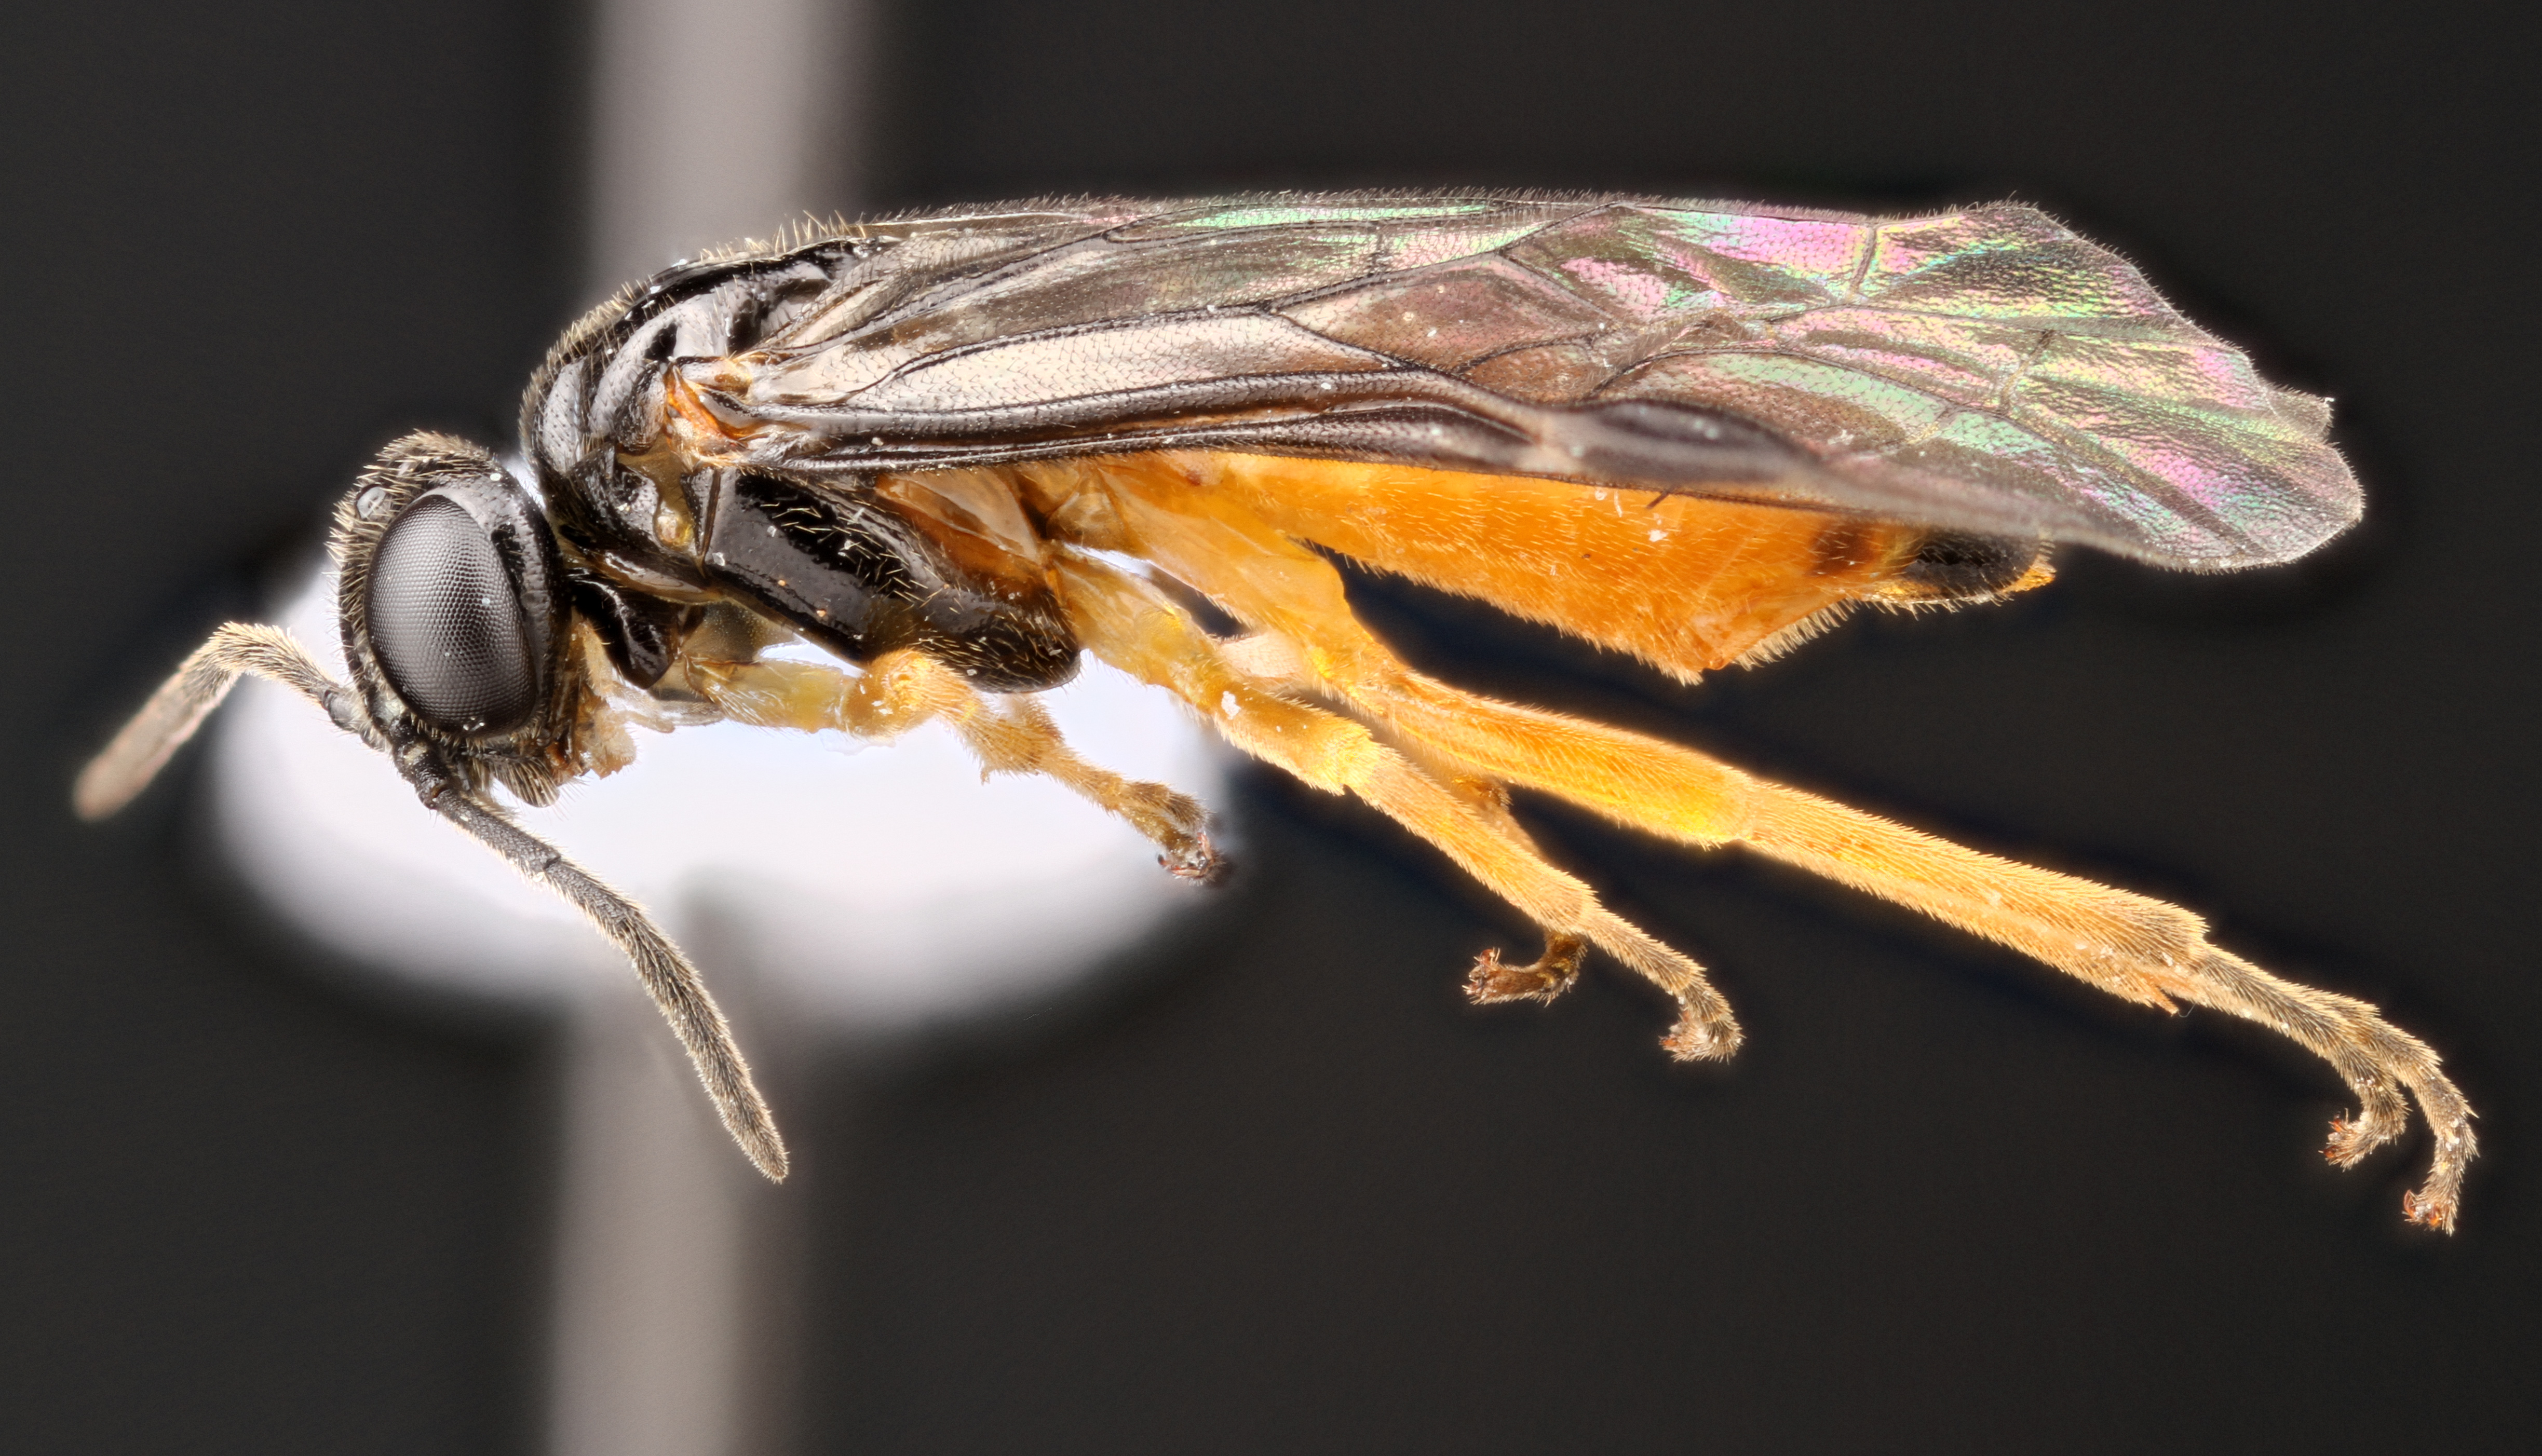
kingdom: Animalia
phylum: Arthropoda
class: Insecta
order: Hymenoptera
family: Tenthredinidae
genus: Halidamia
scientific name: Halidamia affinis
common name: Wasp
